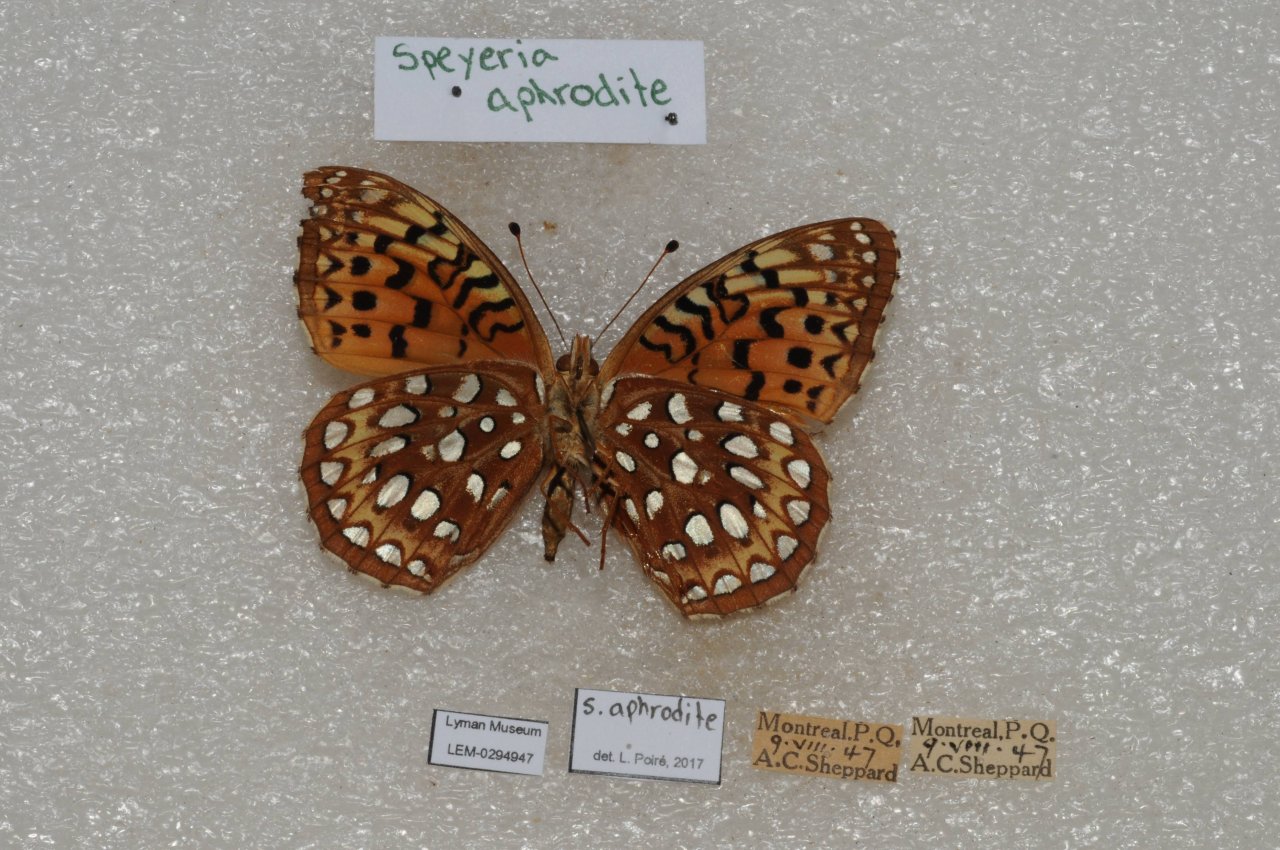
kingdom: Animalia
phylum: Arthropoda
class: Insecta
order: Lepidoptera
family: Nymphalidae
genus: Speyeria
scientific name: Speyeria aphrodite
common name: Aphrodite Fritillary
